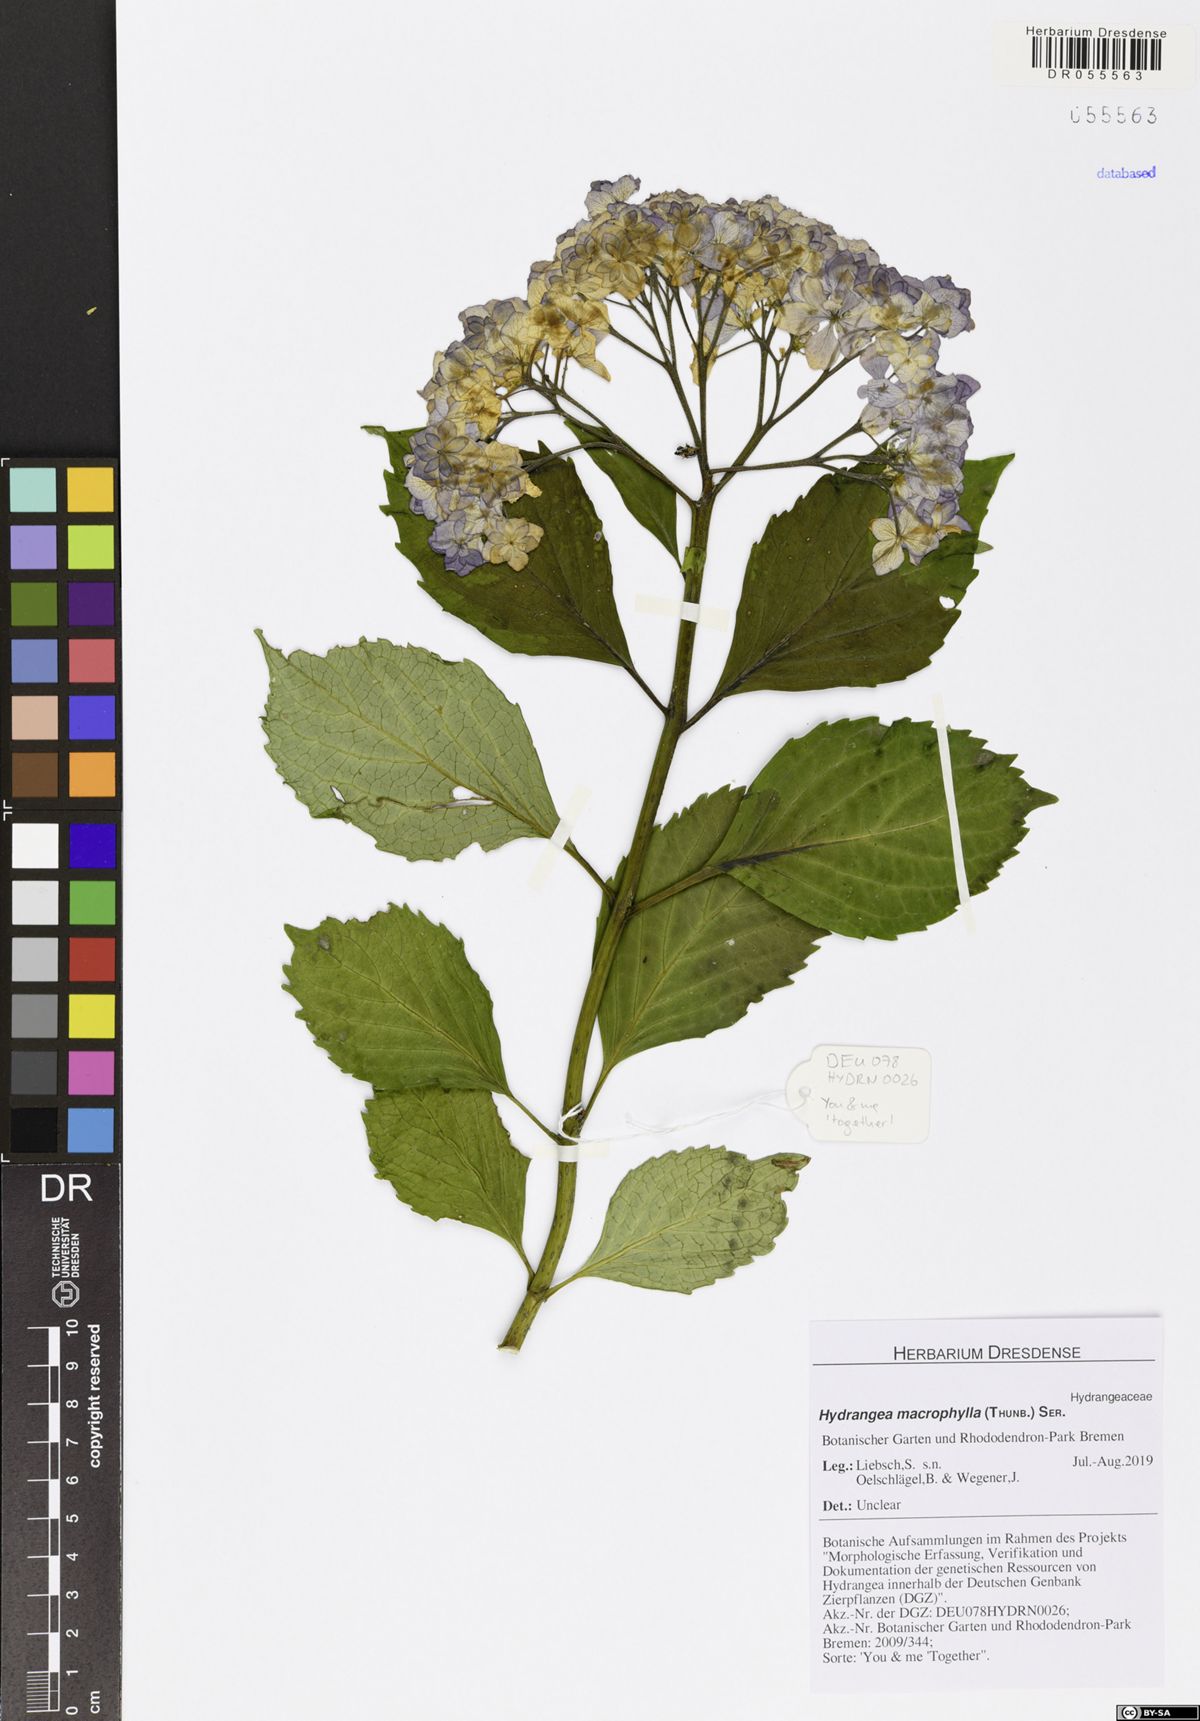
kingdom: Plantae
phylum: Tracheophyta
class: Magnoliopsida
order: Cornales
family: Hydrangeaceae
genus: Hydrangea
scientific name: Hydrangea macrophylla
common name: Hydrangea
